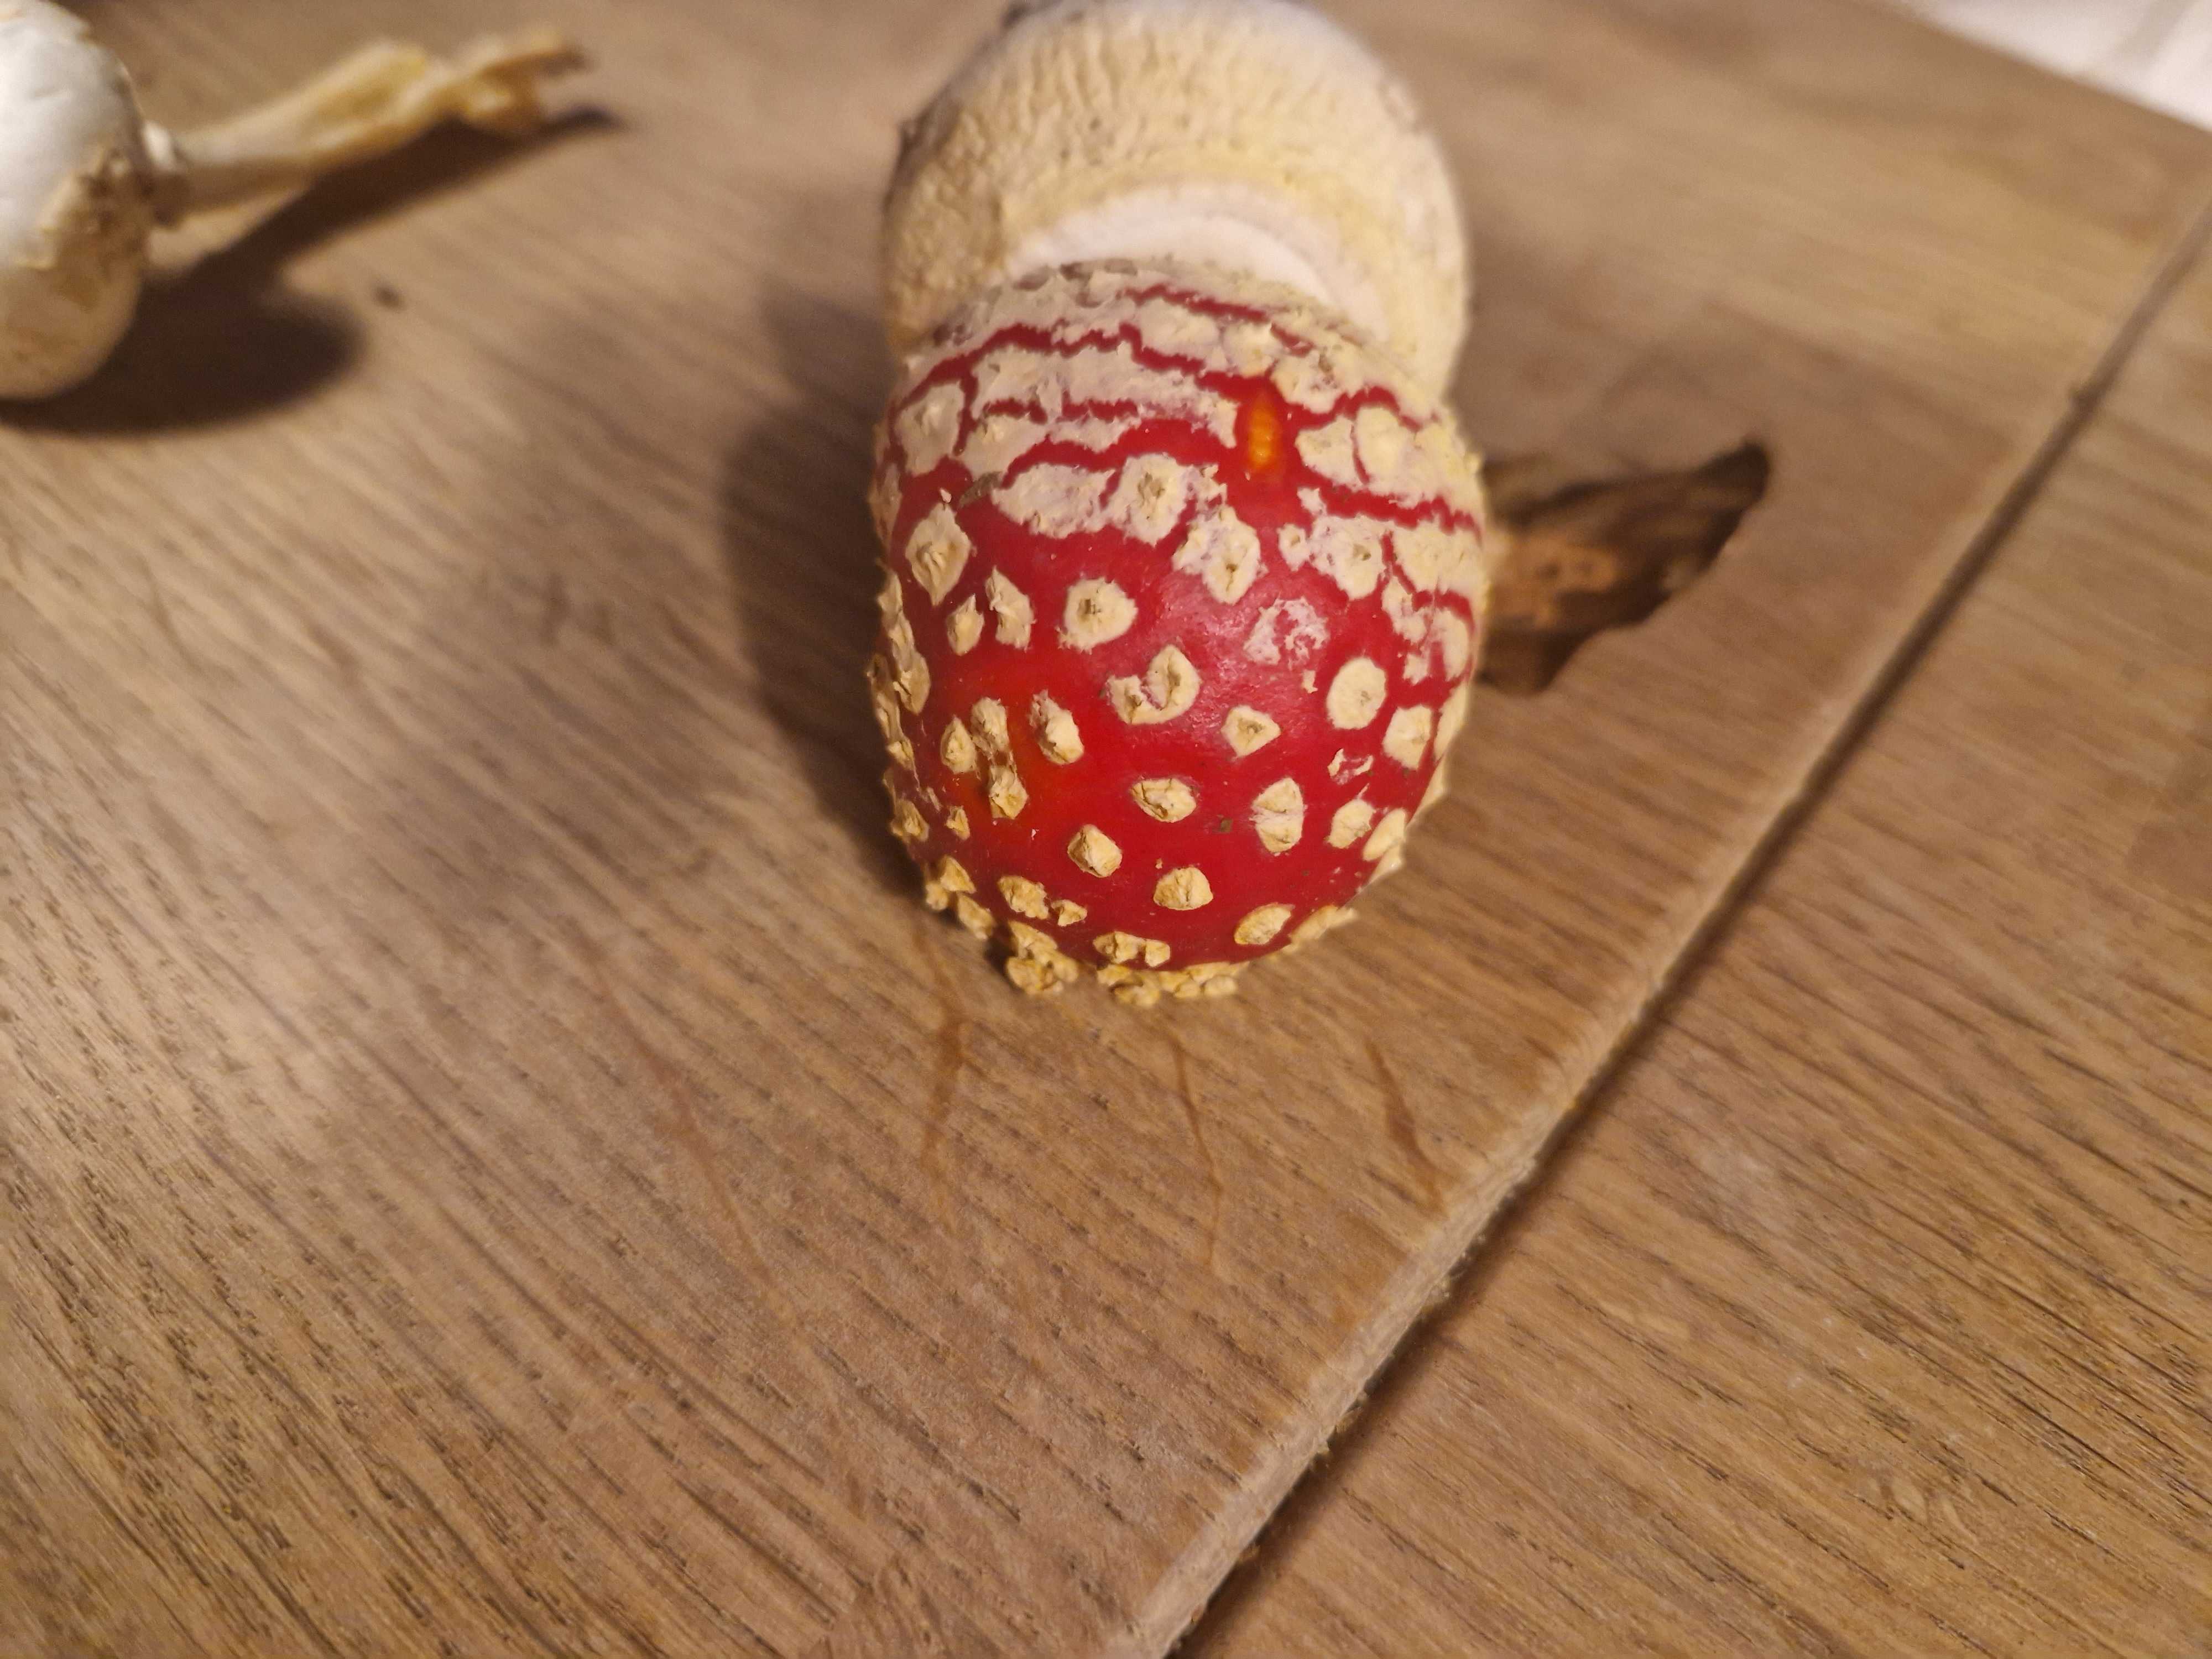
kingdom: Fungi
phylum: Basidiomycota
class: Agaricomycetes
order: Agaricales
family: Amanitaceae
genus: Amanita
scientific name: Amanita muscaria
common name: rød fluesvamp
